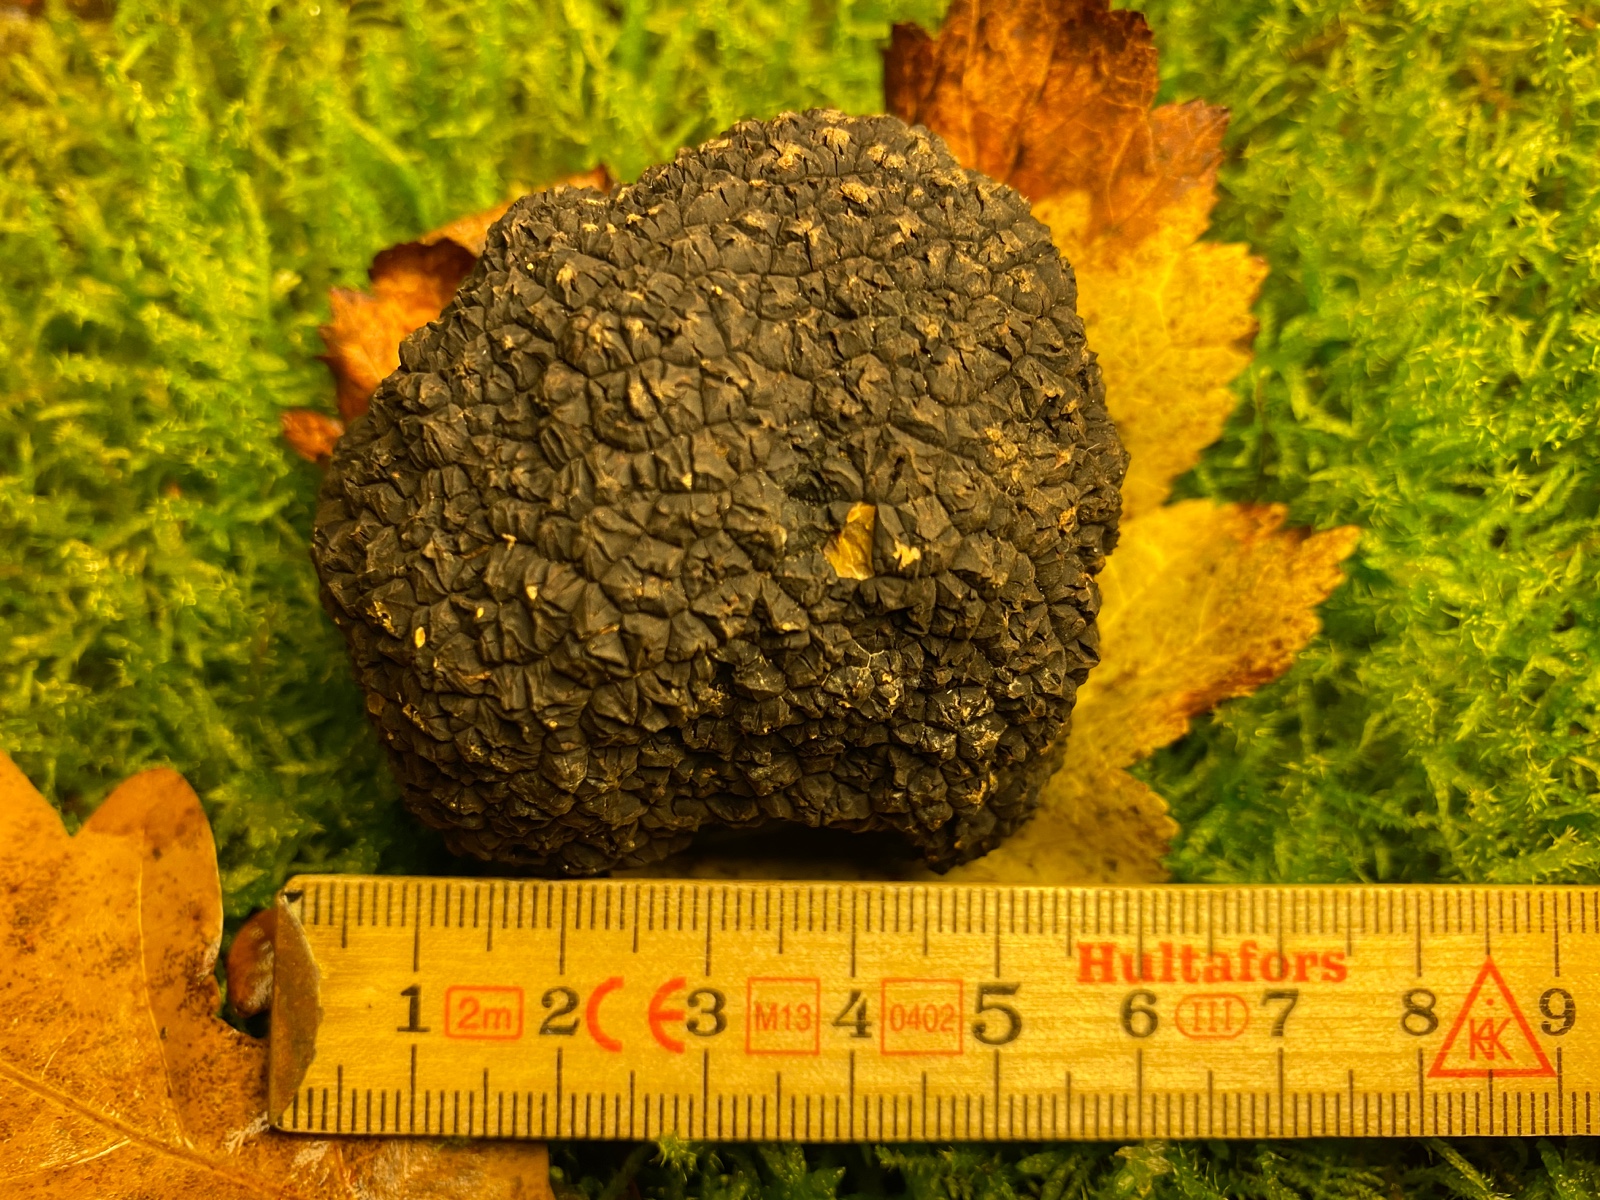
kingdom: Fungi
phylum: Ascomycota
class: Pezizomycetes
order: Pezizales
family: Tuberaceae
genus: Tuber
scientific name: Tuber aestivum
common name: sommer-trøffel
